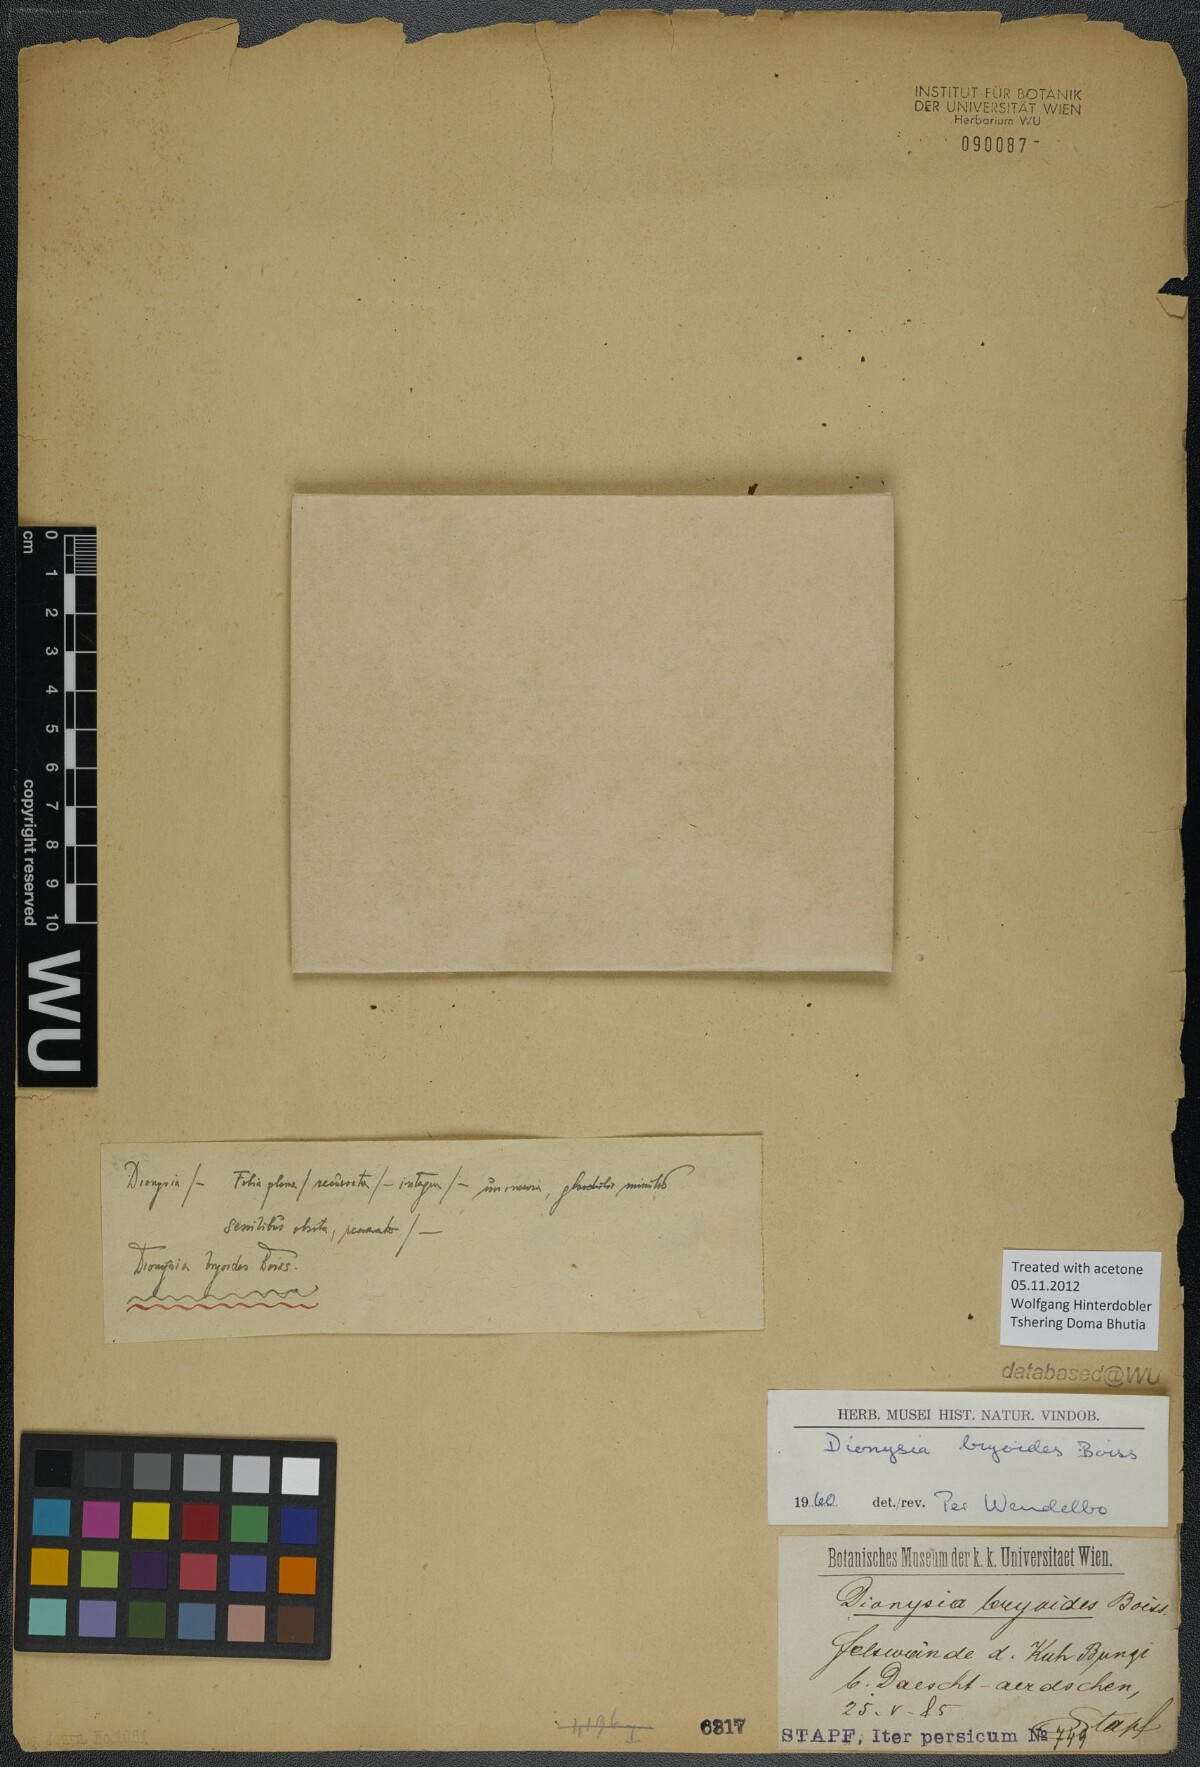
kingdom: Plantae
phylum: Tracheophyta
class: Magnoliopsida
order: Ericales
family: Primulaceae
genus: Dionysia
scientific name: Dionysia bryoides
